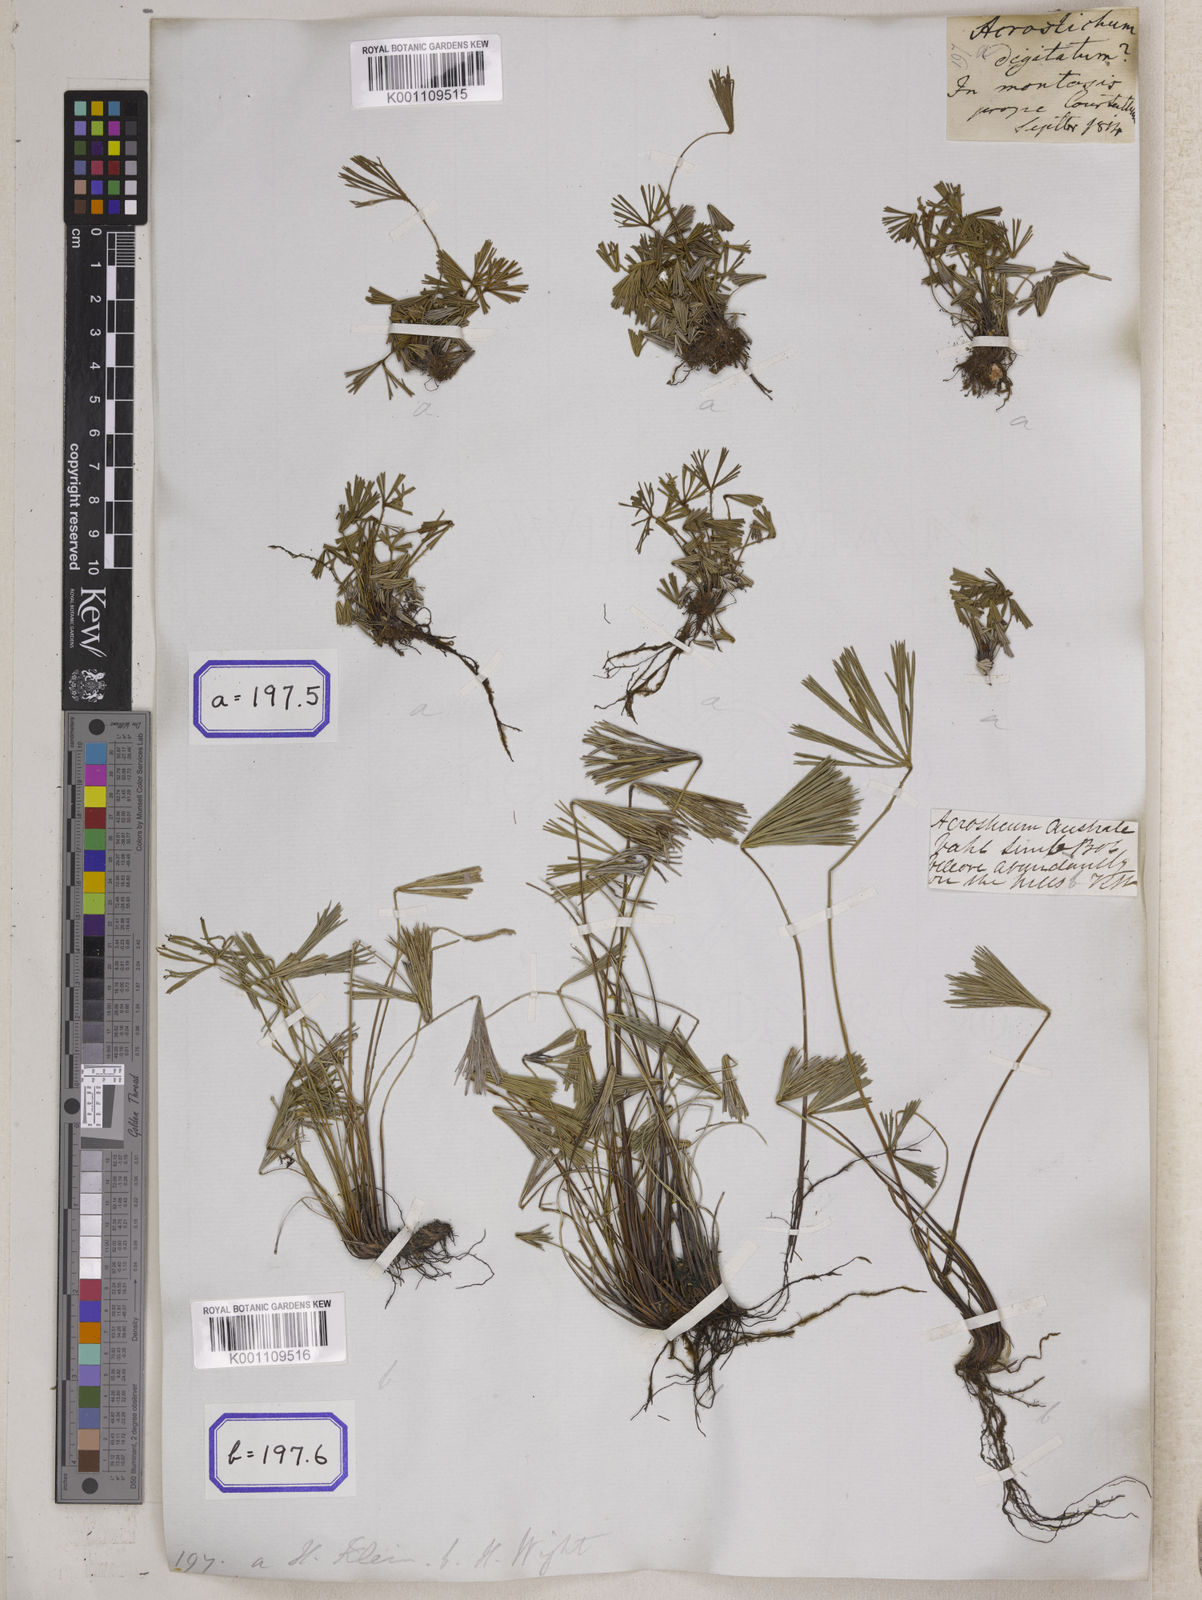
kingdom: Plantae
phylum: Tracheophyta
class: Polypodiopsida
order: Polypodiales
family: Pteridaceae
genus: Actiniopteris
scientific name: Actiniopteris radiata
